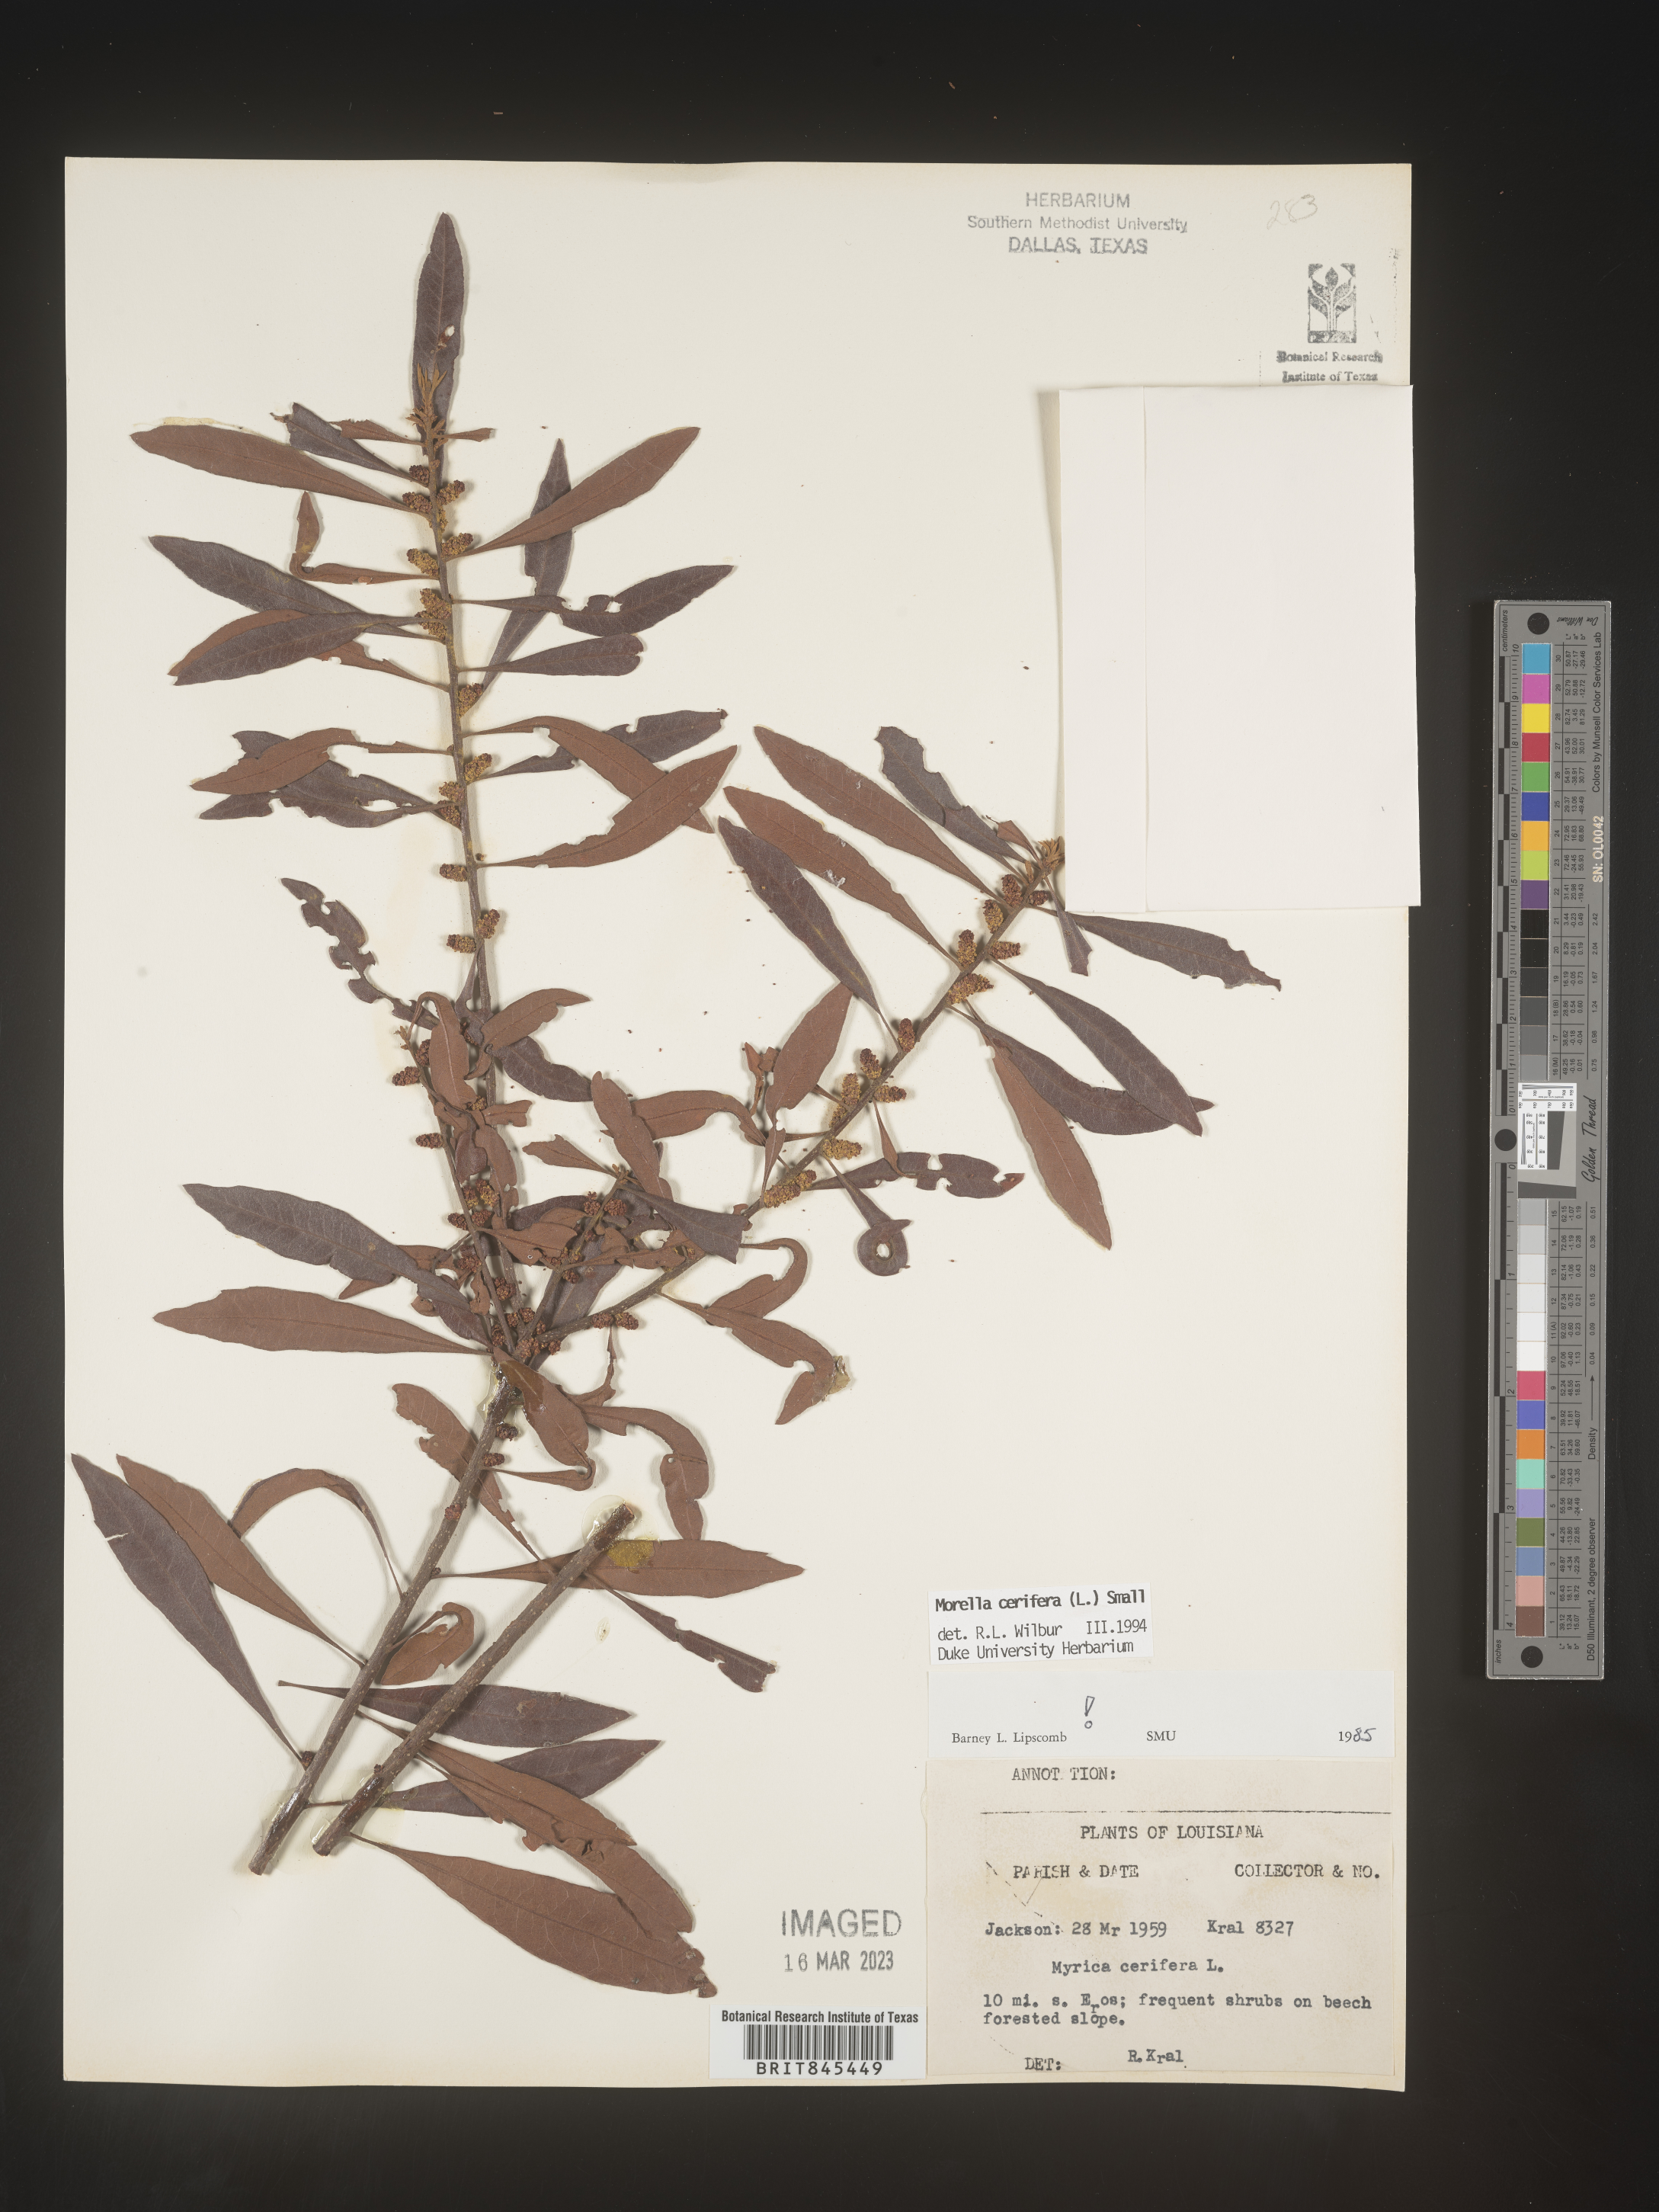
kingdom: Plantae
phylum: Tracheophyta
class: Magnoliopsida
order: Fagales
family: Myricaceae
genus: Morella
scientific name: Morella cerifera
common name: Wax myrtle
